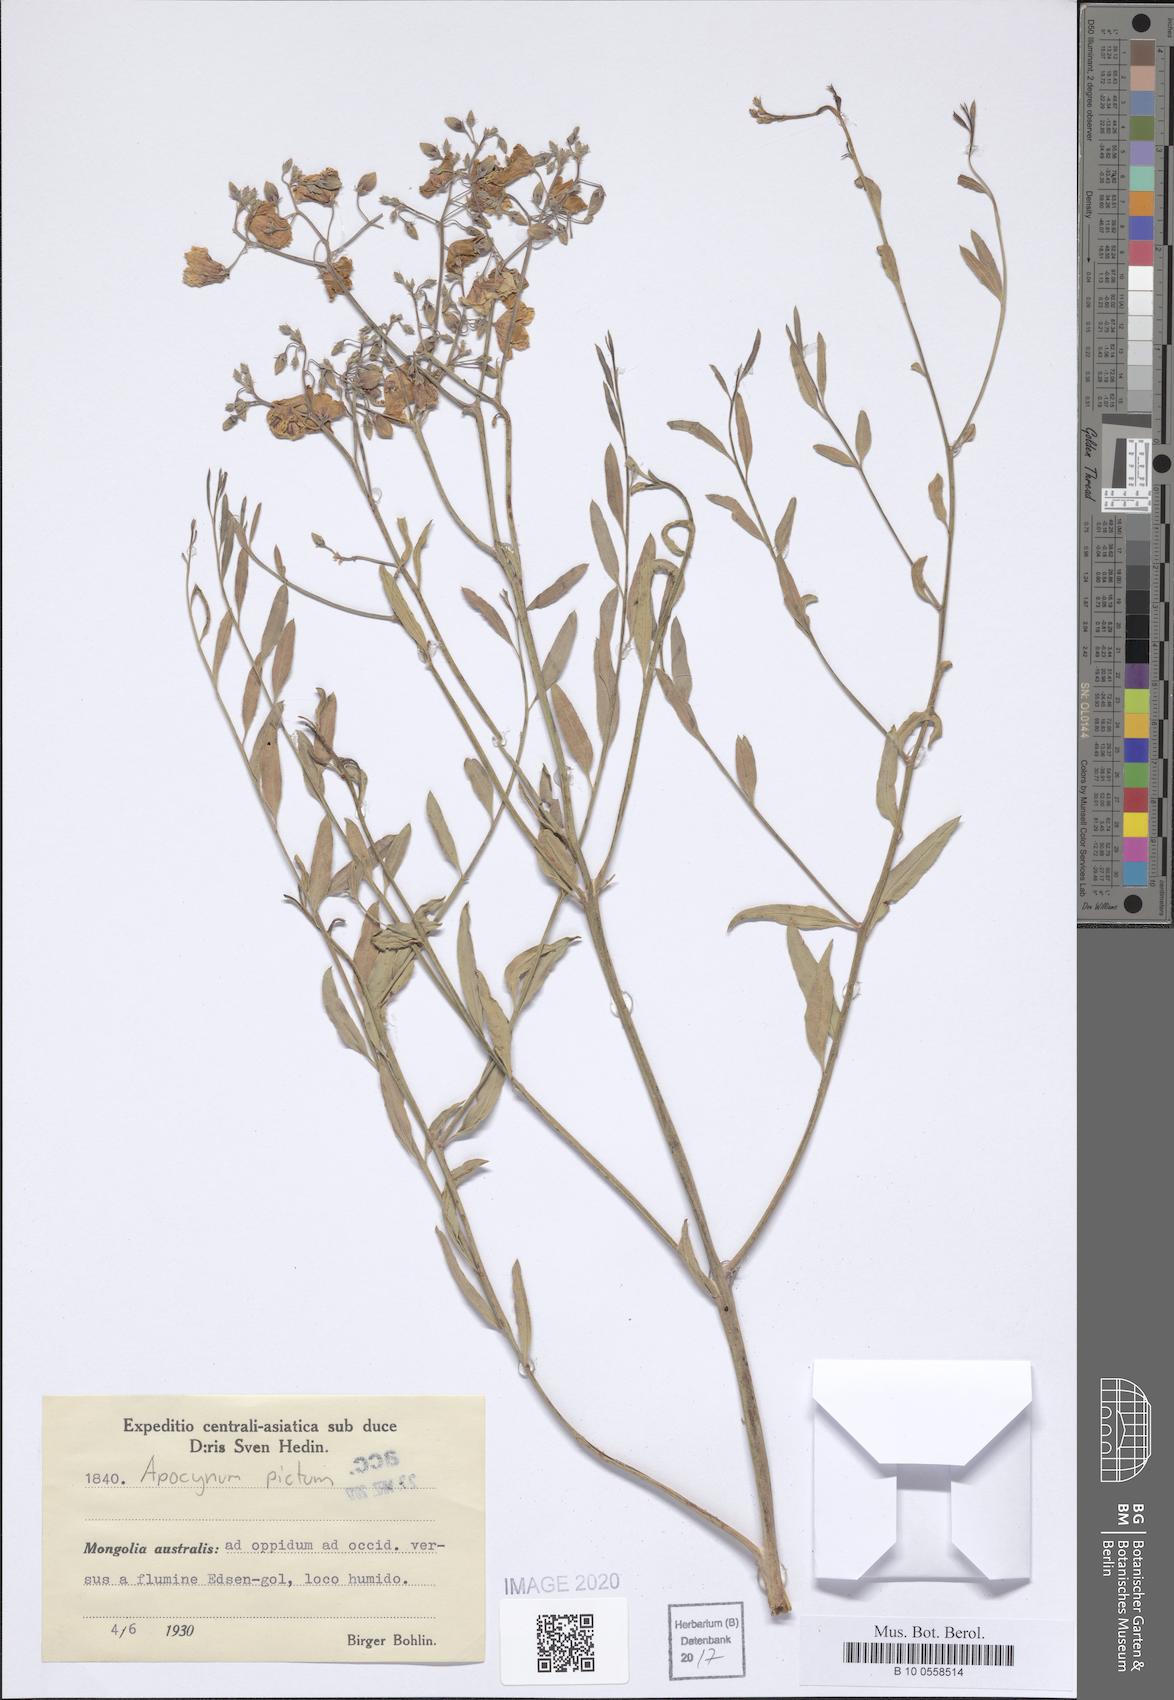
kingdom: Plantae
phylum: Tracheophyta
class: Magnoliopsida
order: Gentianales
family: Apocynaceae
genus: Poacynum
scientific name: Poacynum pictum
